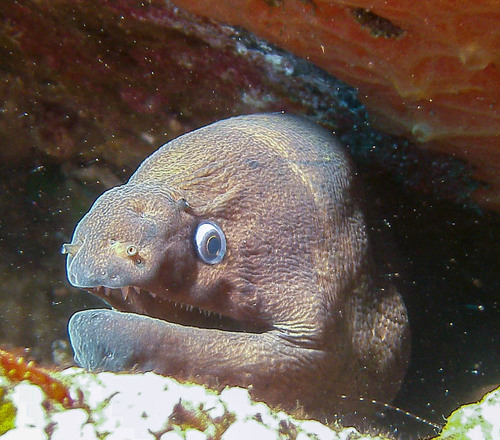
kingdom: Animalia
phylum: Chordata
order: Anguilliformes
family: Muraenidae
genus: Gymnothorax
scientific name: Gymnothorax unicolor
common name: Brown moray
